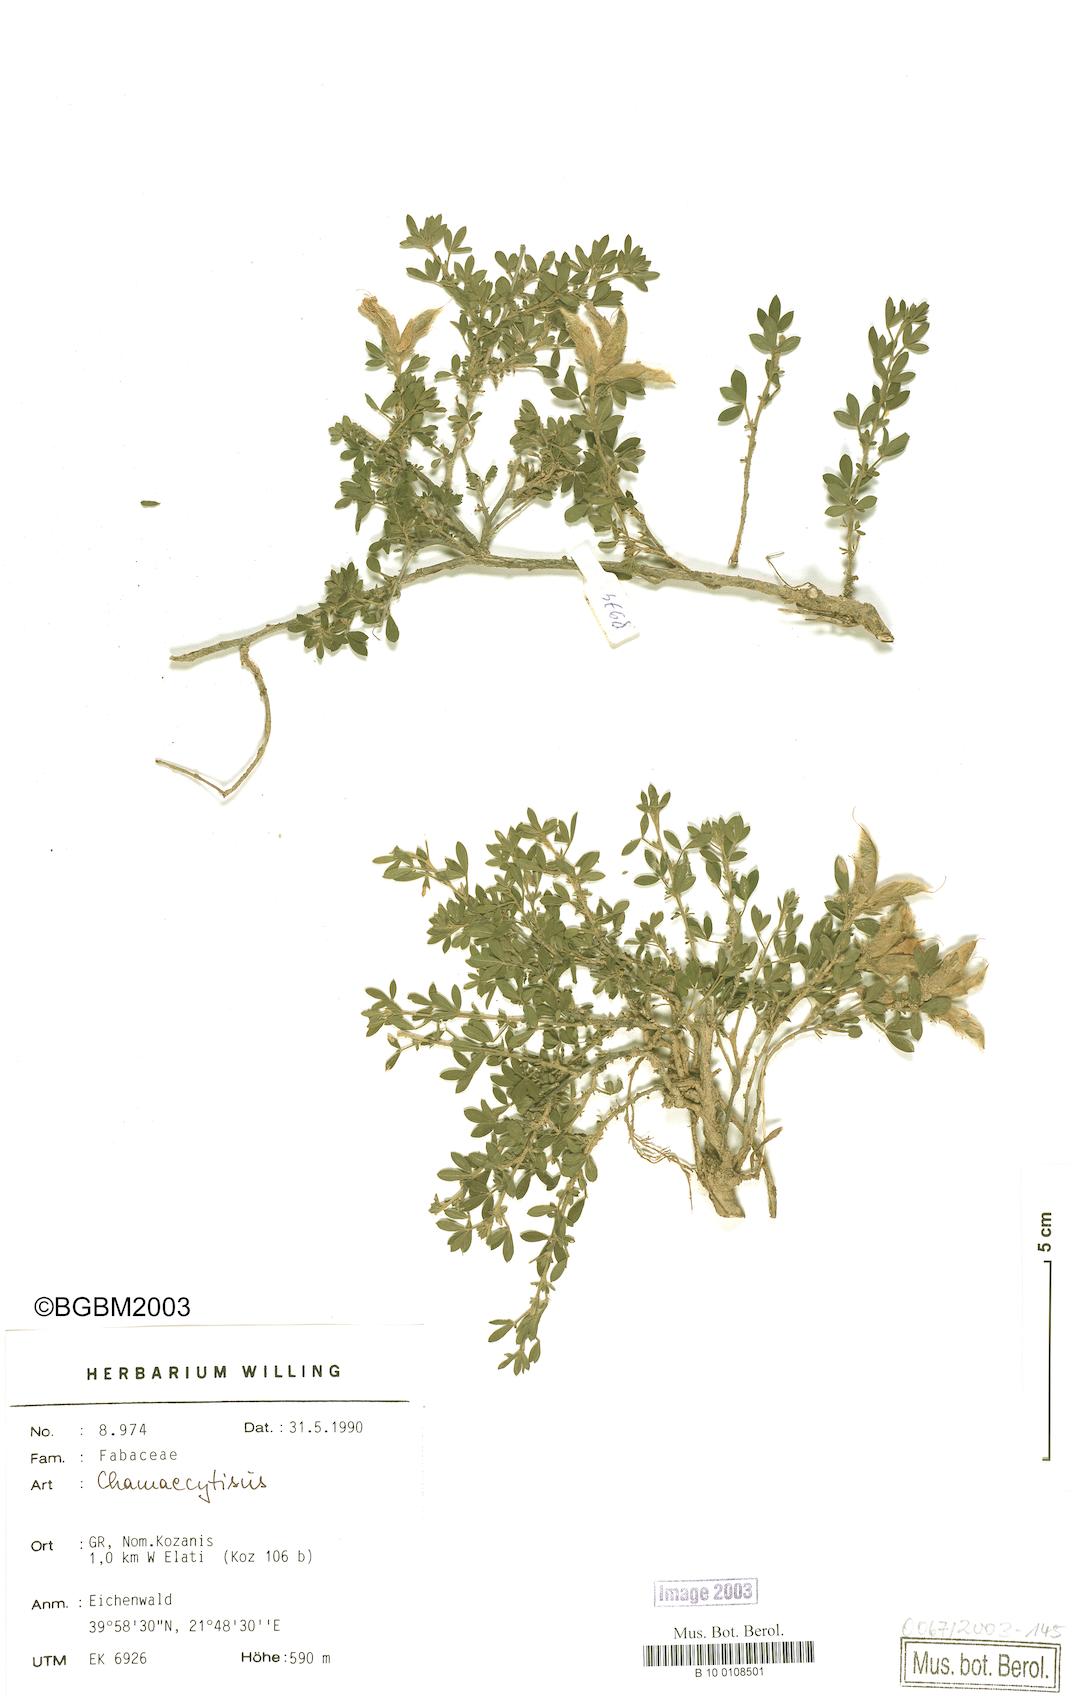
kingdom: Plantae
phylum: Tracheophyta
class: Magnoliopsida
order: Fabales
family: Fabaceae
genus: Chamaecytisus
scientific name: Chamaecytisus eriocarpus
